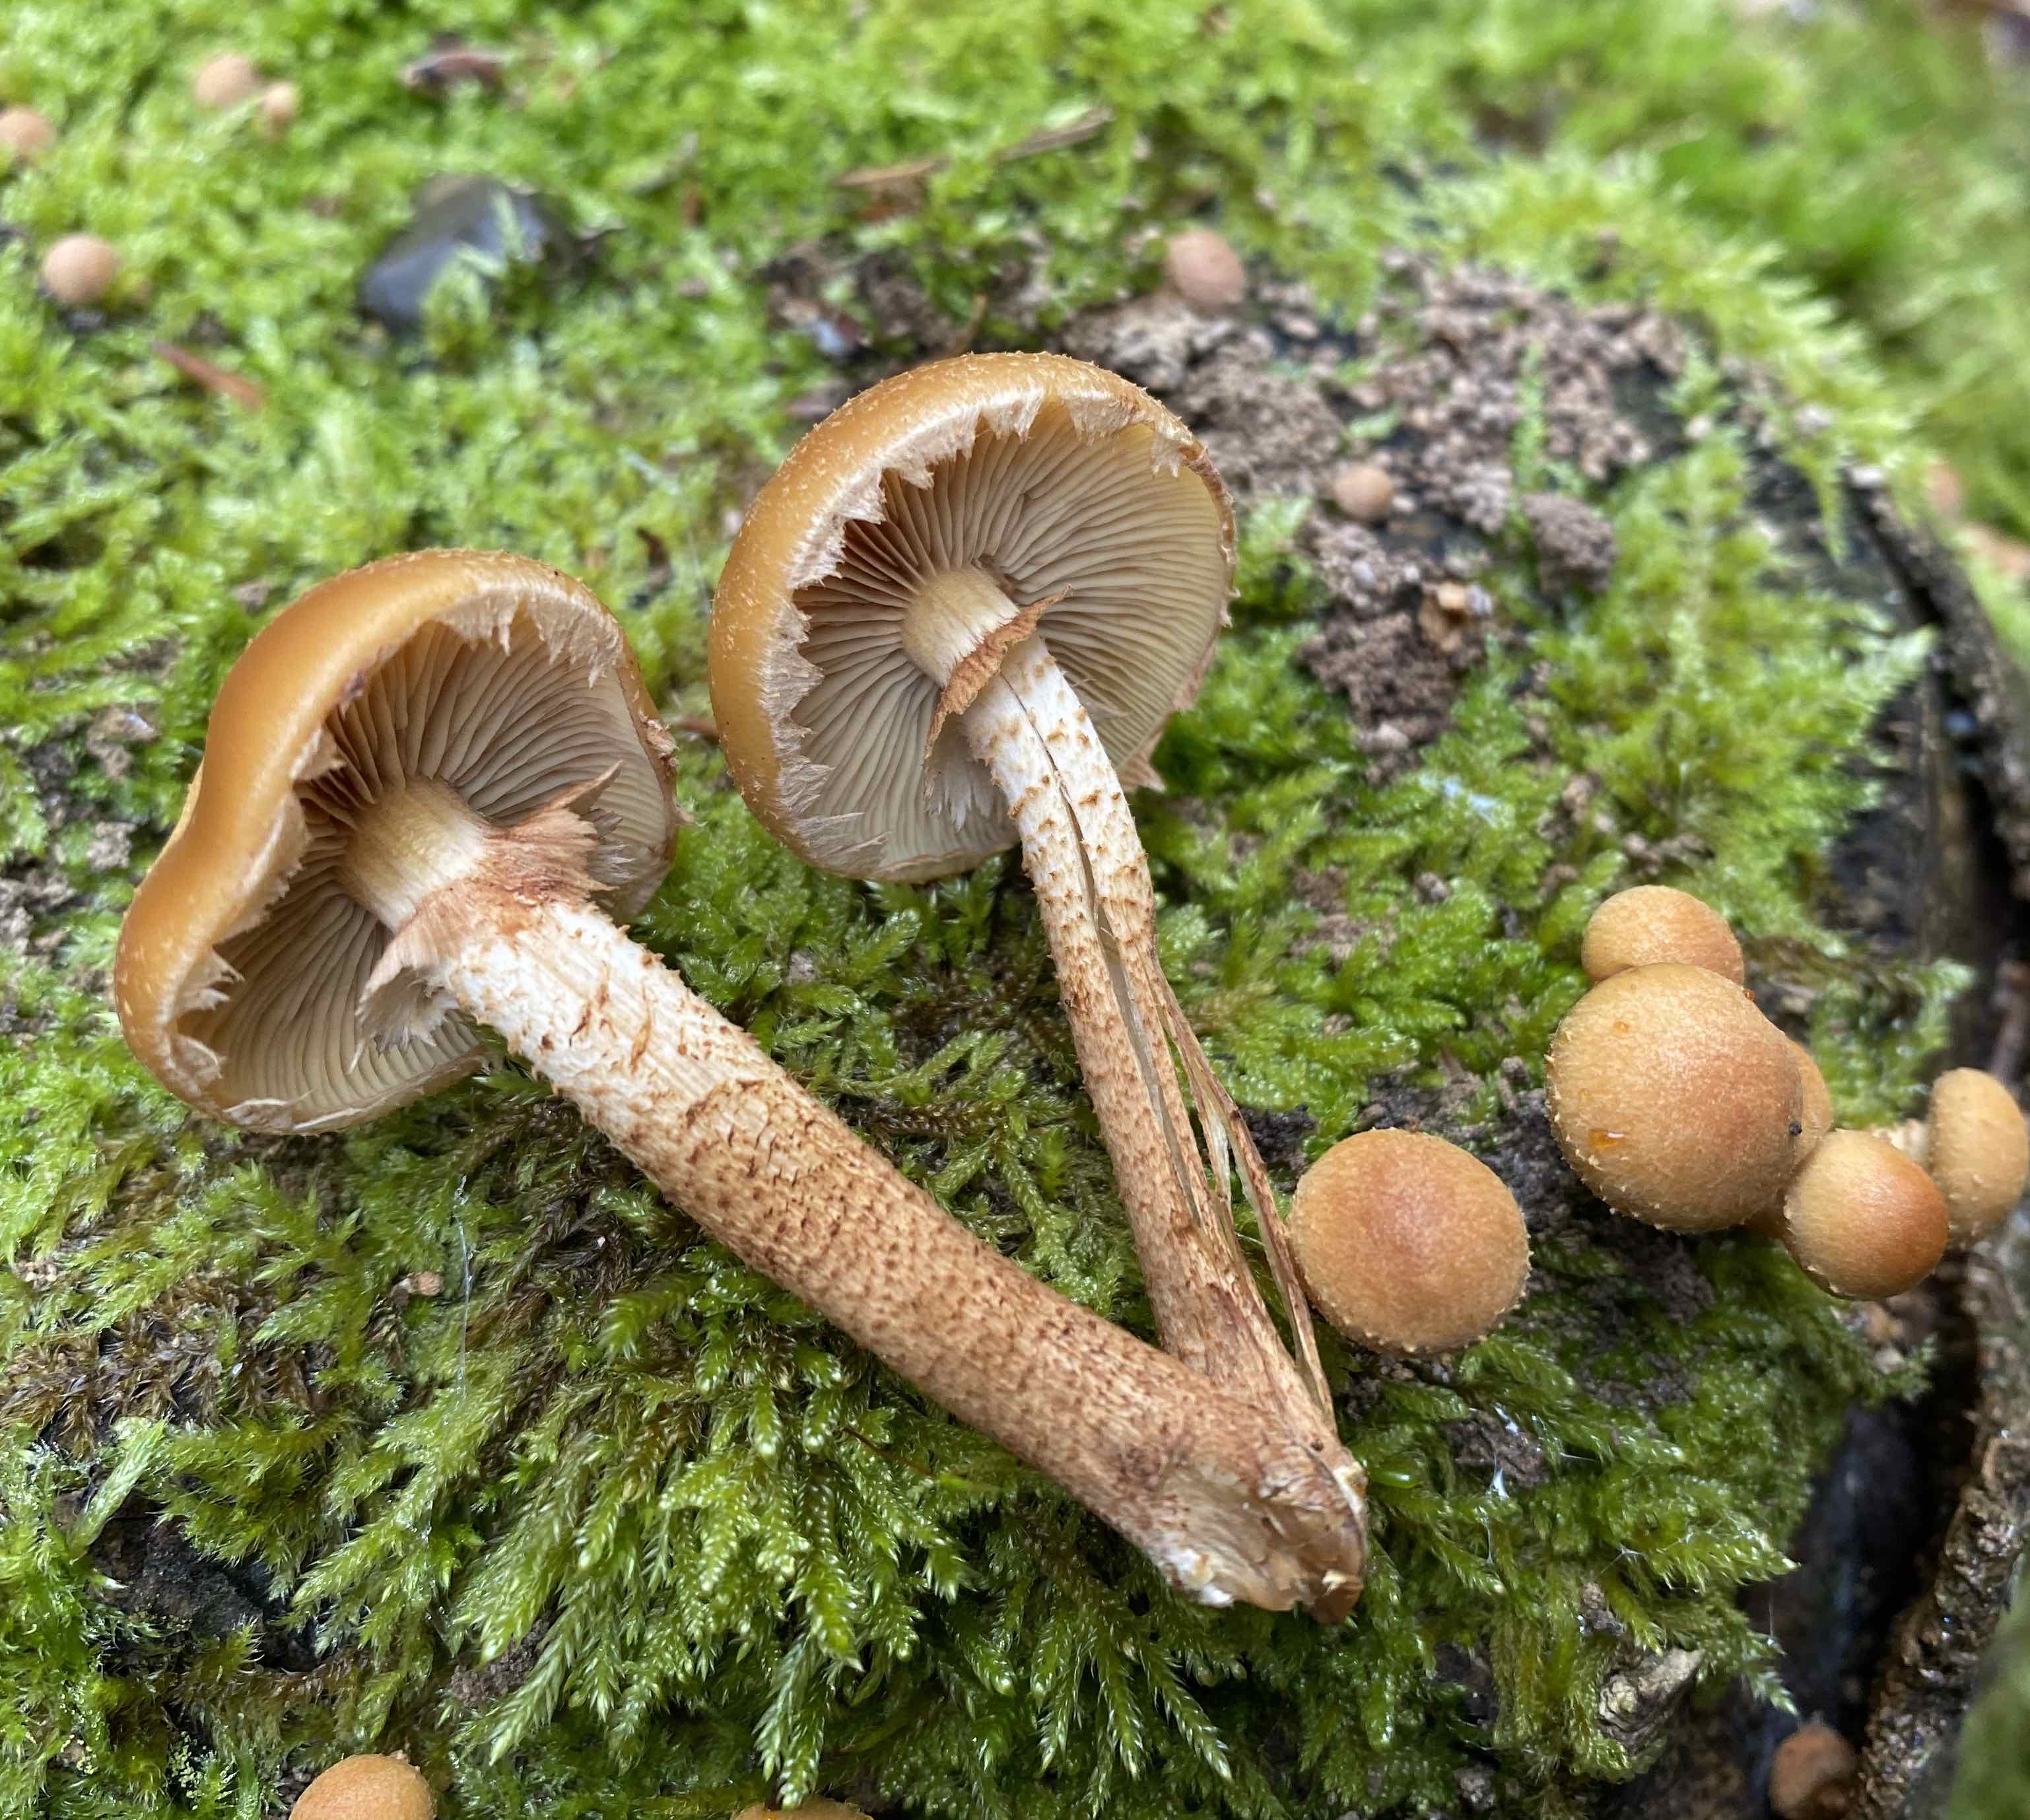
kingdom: Fungi
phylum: Basidiomycota
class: Agaricomycetes
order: Agaricales
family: Strophariaceae
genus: Kuehneromyces
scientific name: Kuehneromyces mutabilis
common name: foranderlig skælhat
